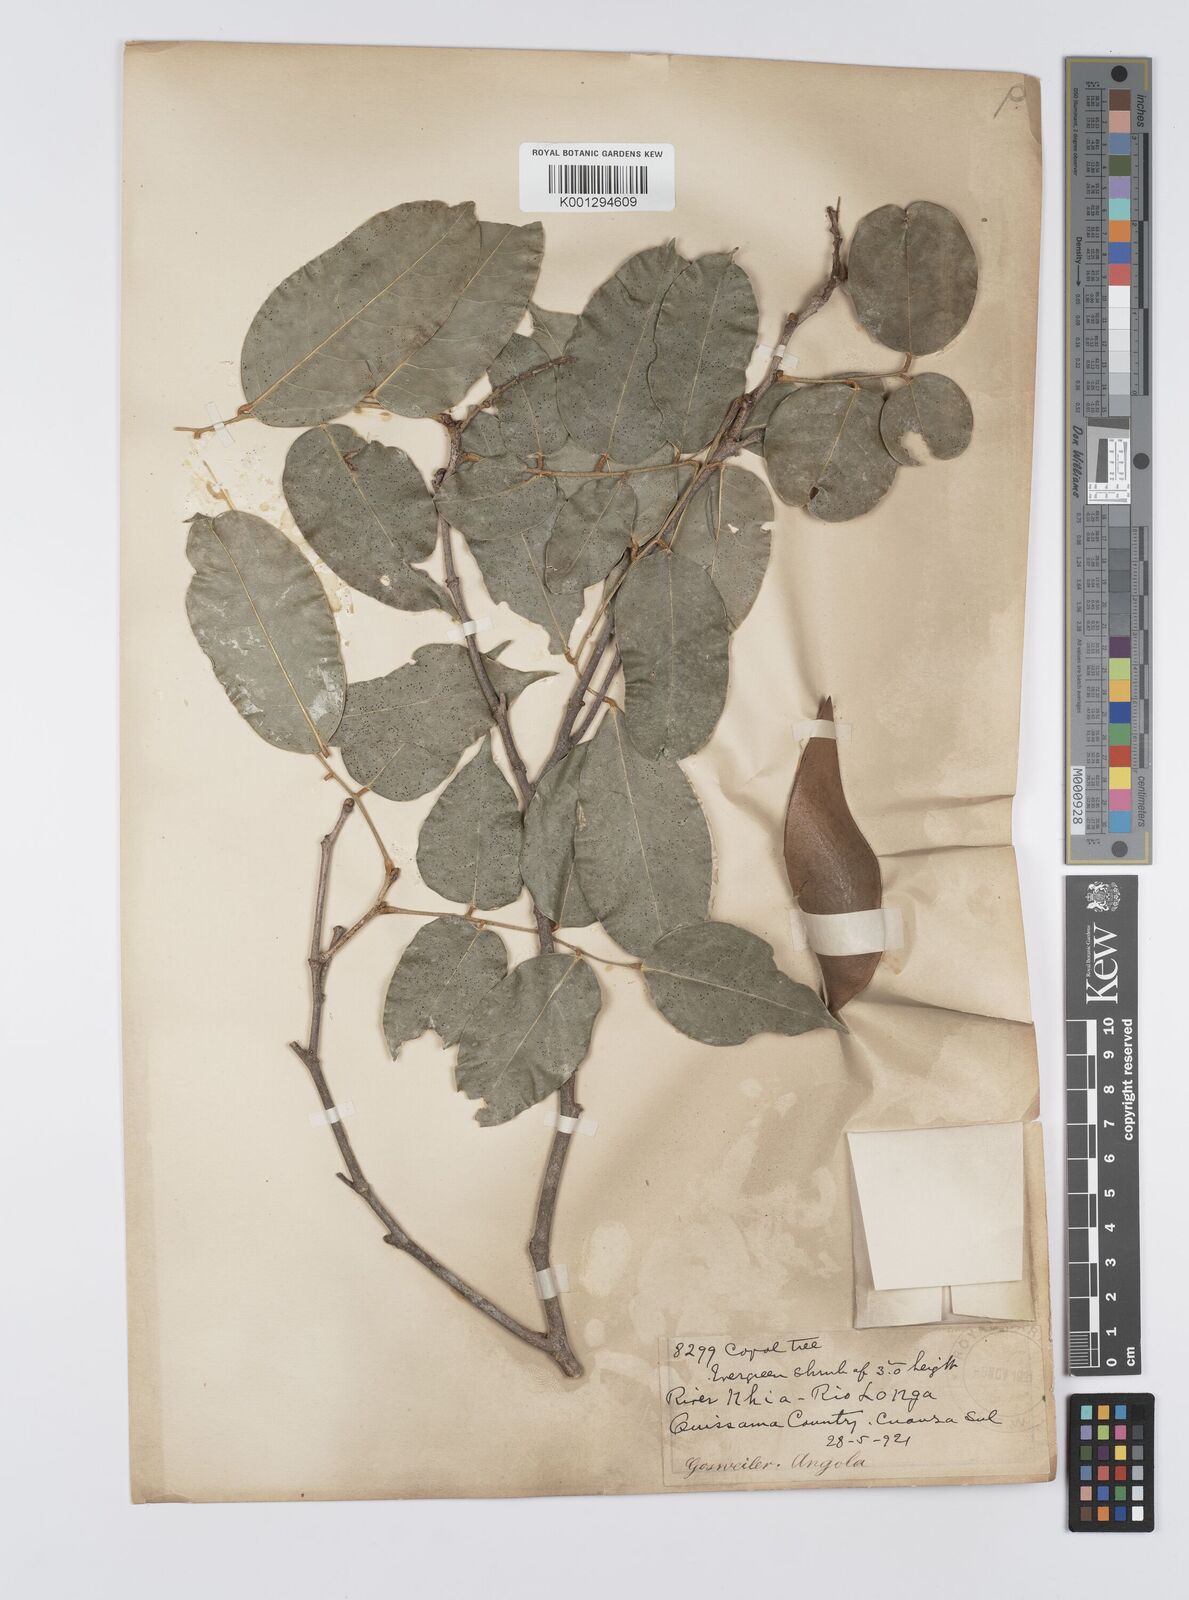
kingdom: Plantae
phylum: Tracheophyta
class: Magnoliopsida
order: Fabales
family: Fabaceae
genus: Craibia
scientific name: Craibia brevicaudata
